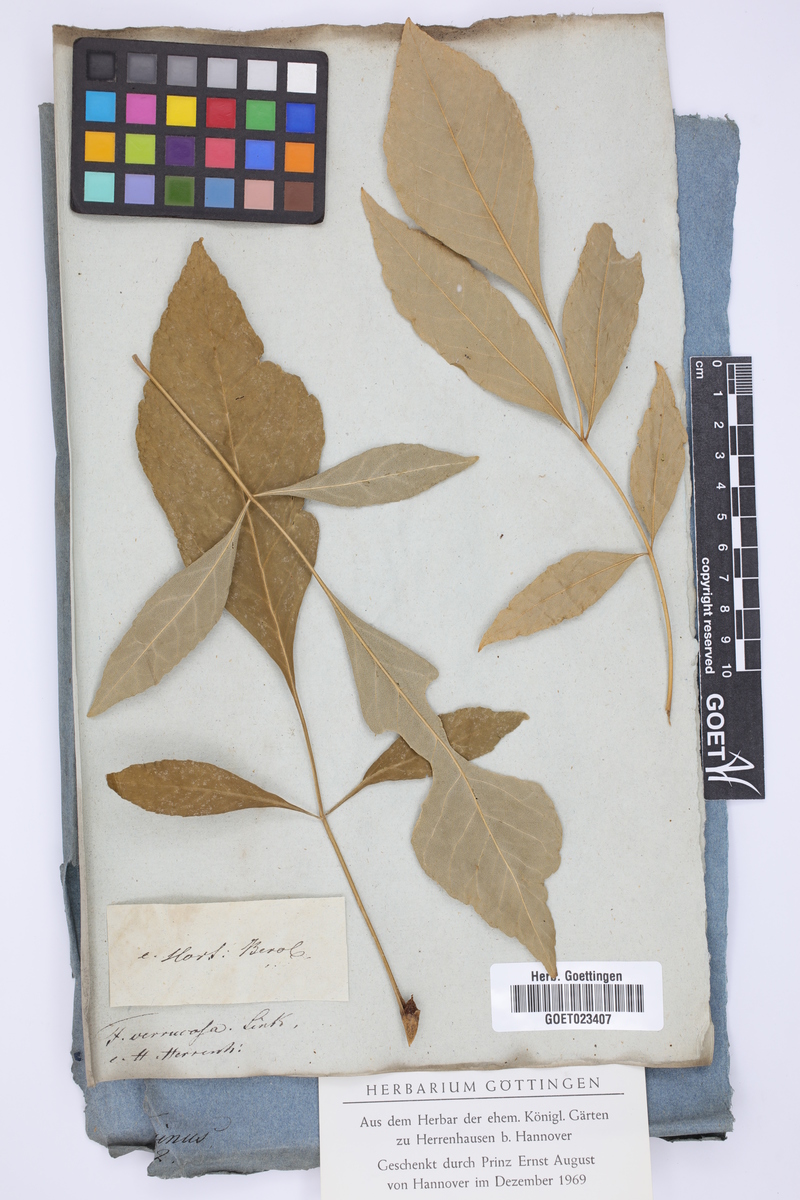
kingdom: Plantae
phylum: Tracheophyta
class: Magnoliopsida
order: Lamiales
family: Oleaceae
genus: Fraxinus
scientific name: Fraxinus excelsior
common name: European ash
